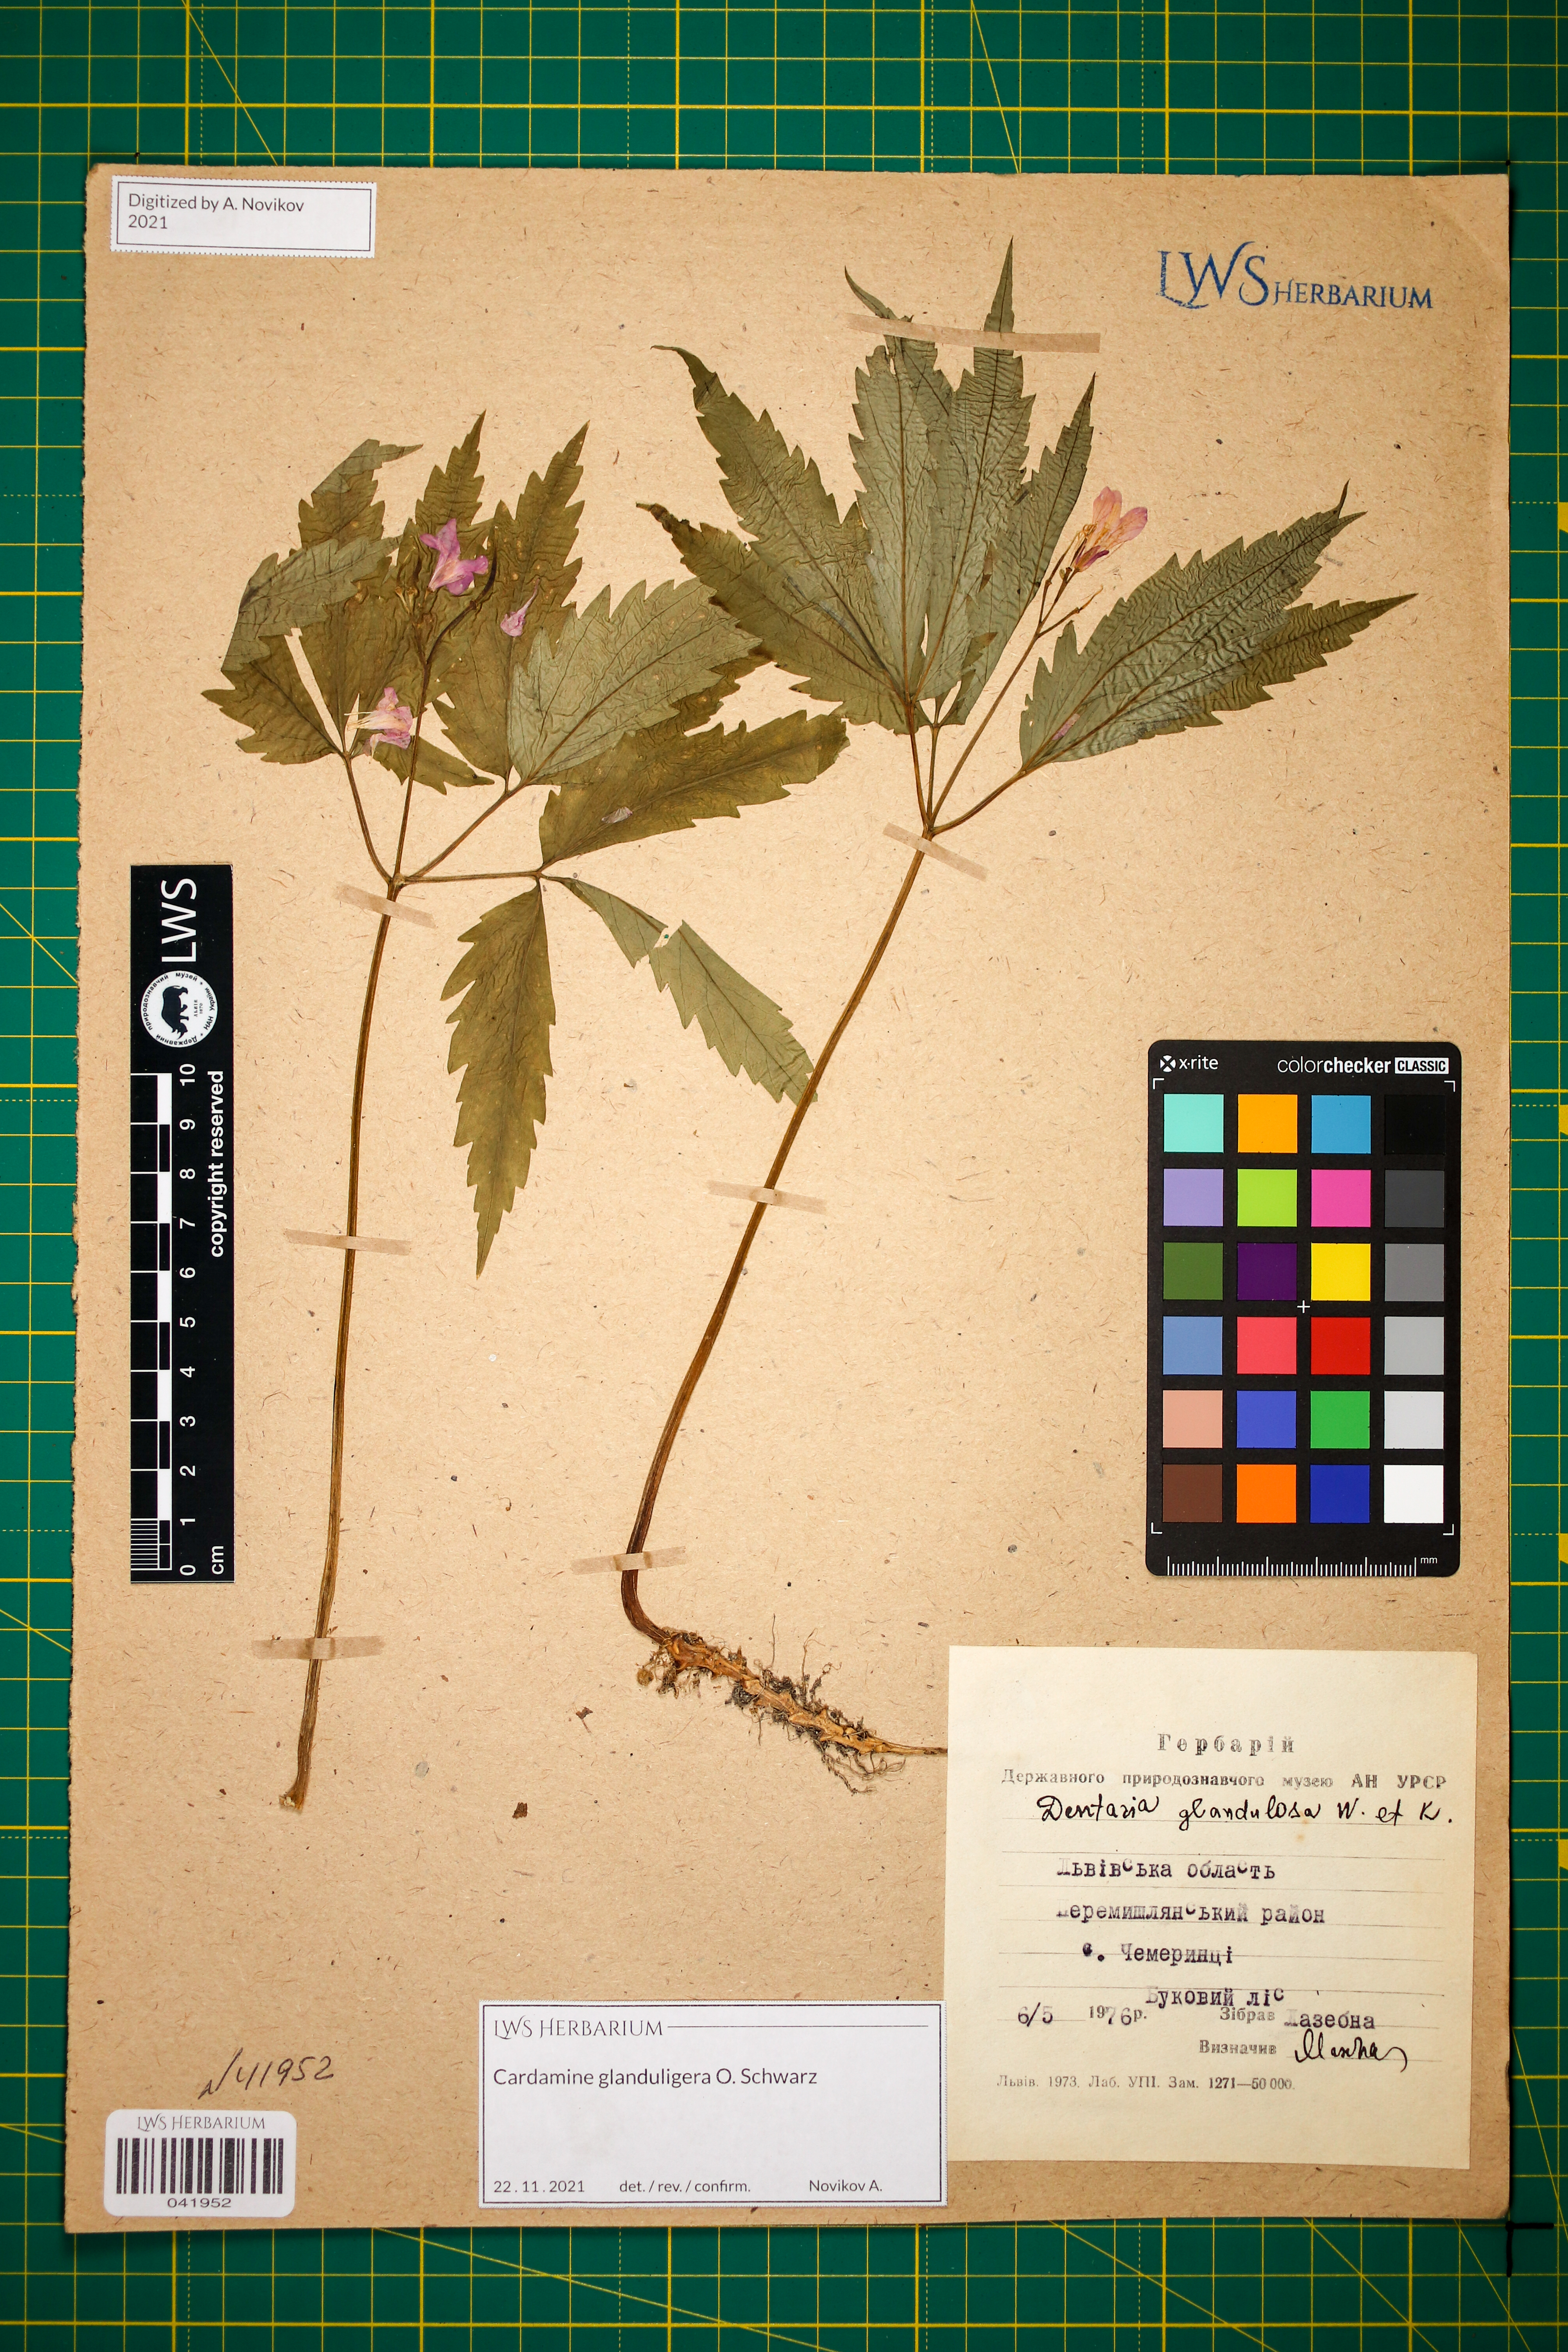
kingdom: Plantae
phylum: Tracheophyta
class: Magnoliopsida
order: Brassicales
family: Brassicaceae
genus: Cardamine
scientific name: Cardamine glanduligera
